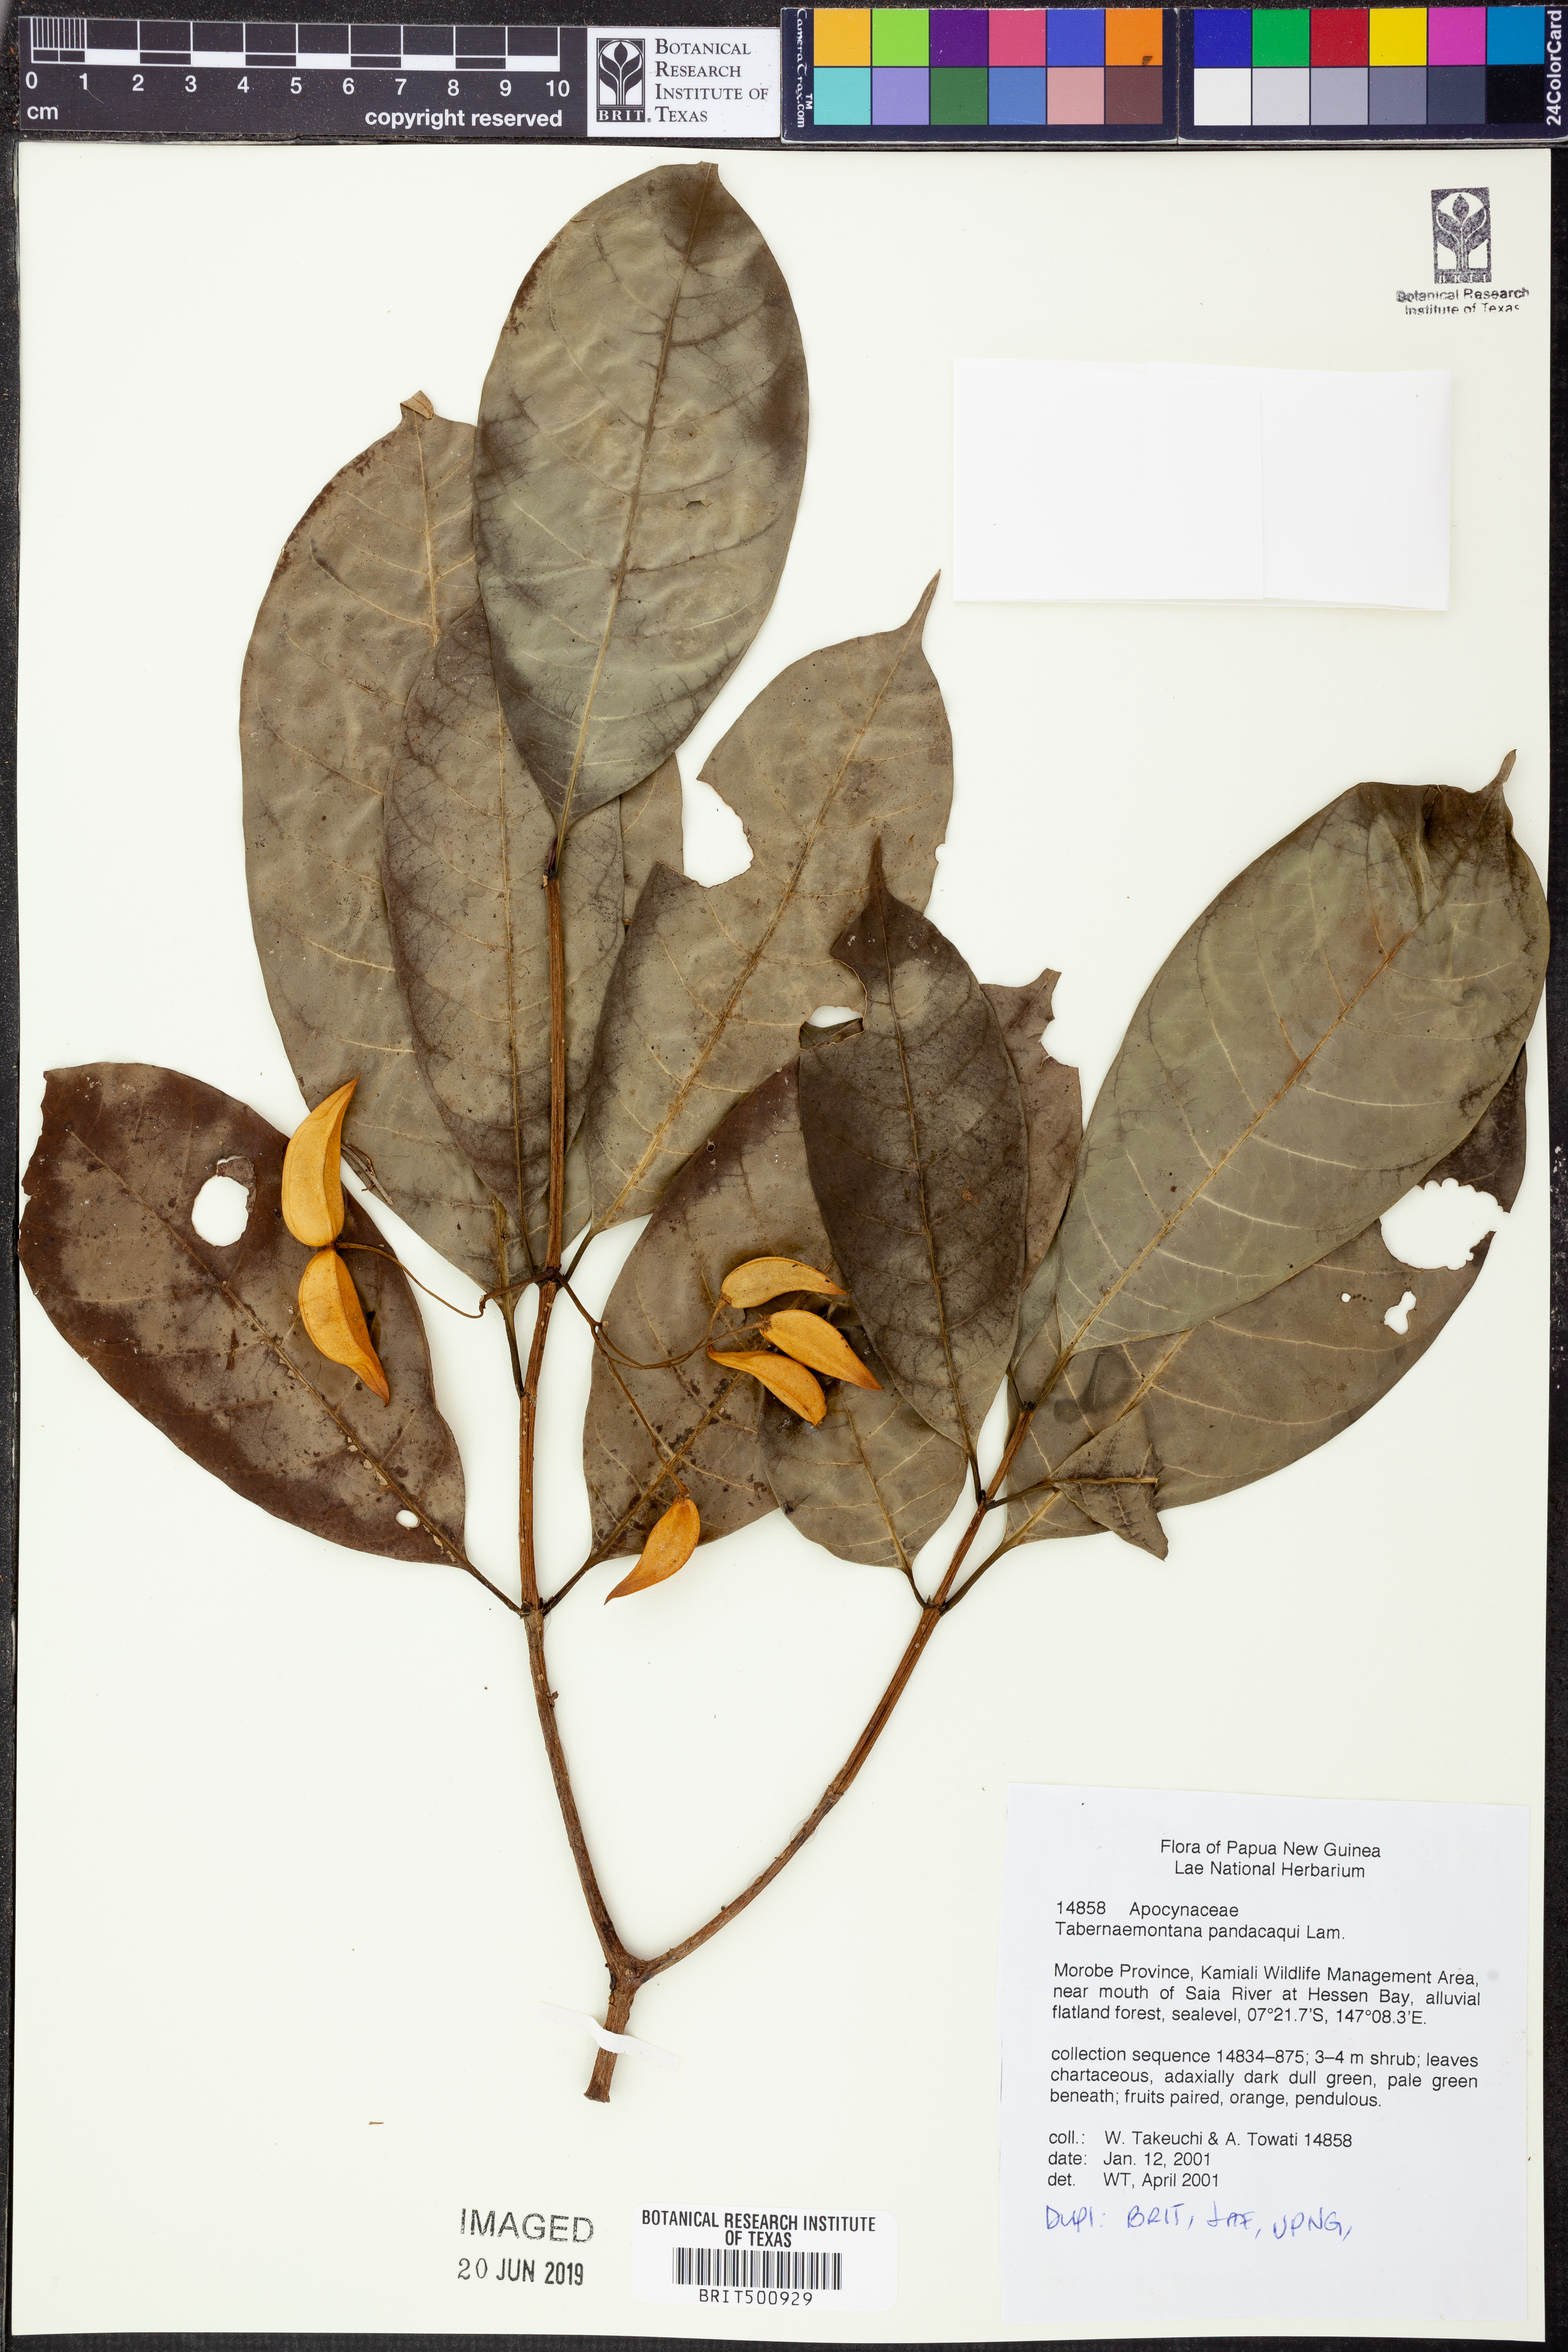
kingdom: Plantae
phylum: Tracheophyta
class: Magnoliopsida
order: Gentianales
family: Apocynaceae
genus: Tabernaemontana
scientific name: Tabernaemontana pandacaqui
